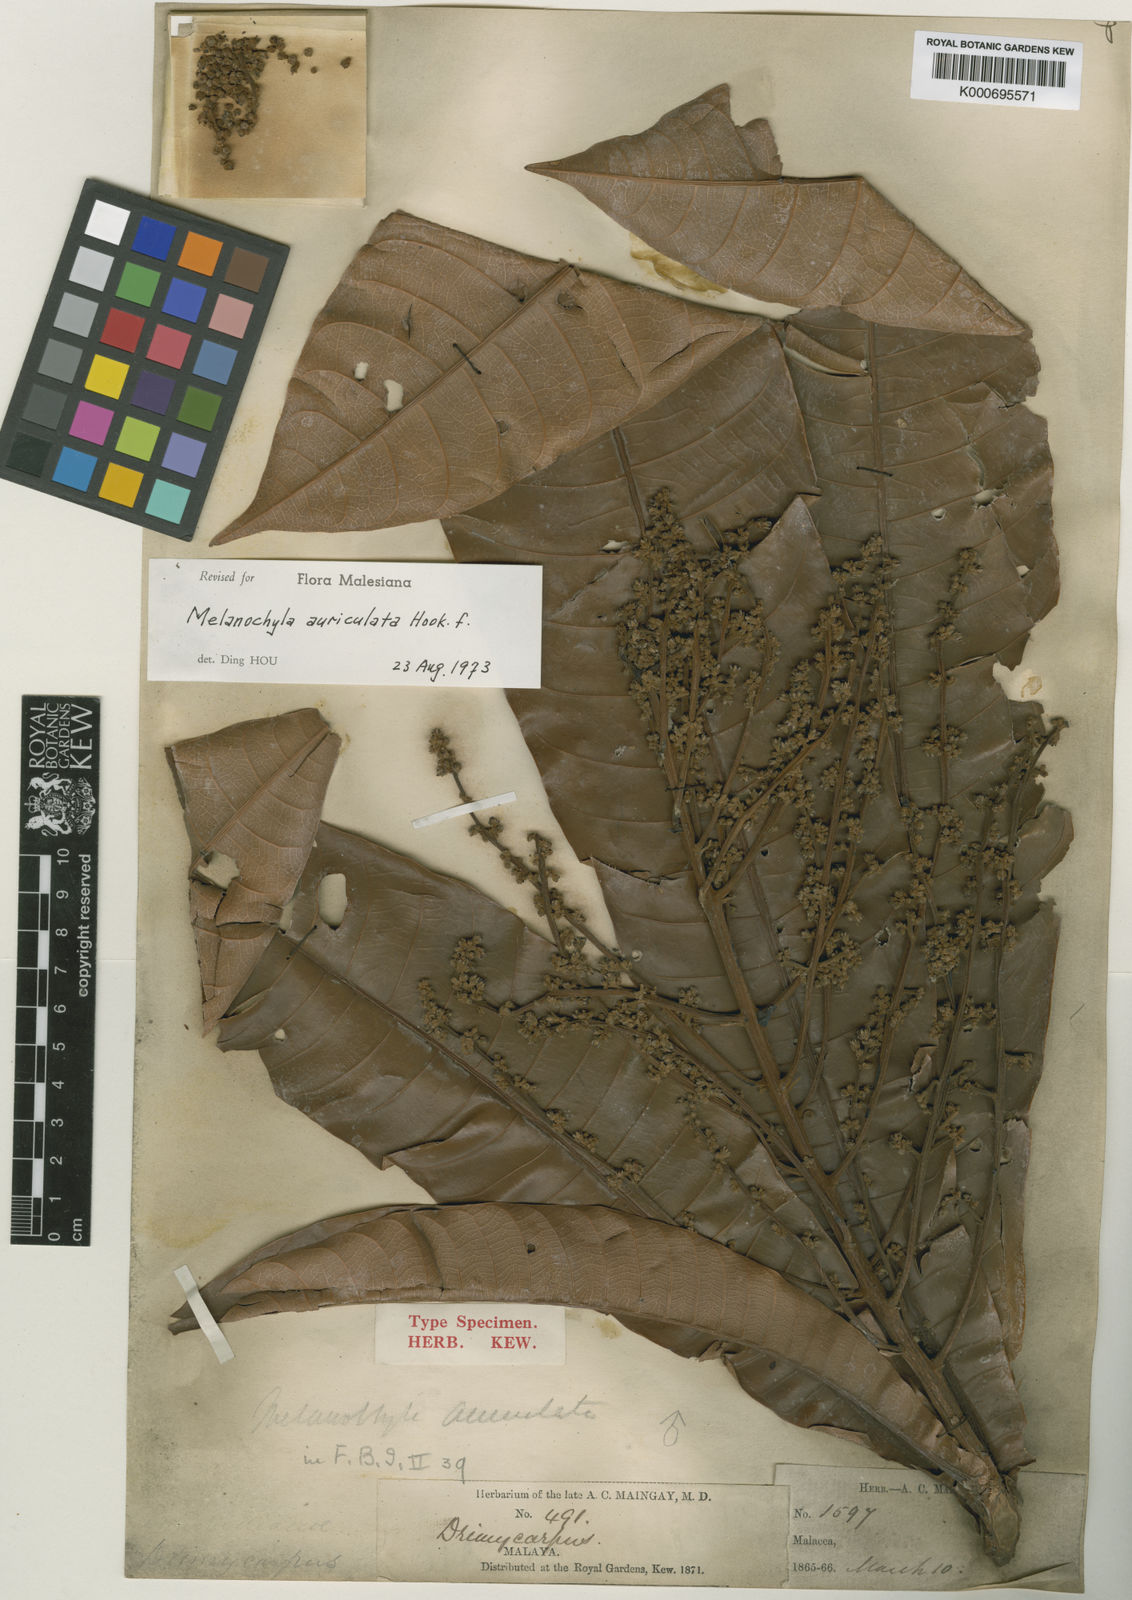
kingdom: Plantae
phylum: Tracheophyta
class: Magnoliopsida
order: Sapindales
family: Anacardiaceae
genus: Melanochyla
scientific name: Melanochyla auriculata
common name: Swamp rengas
